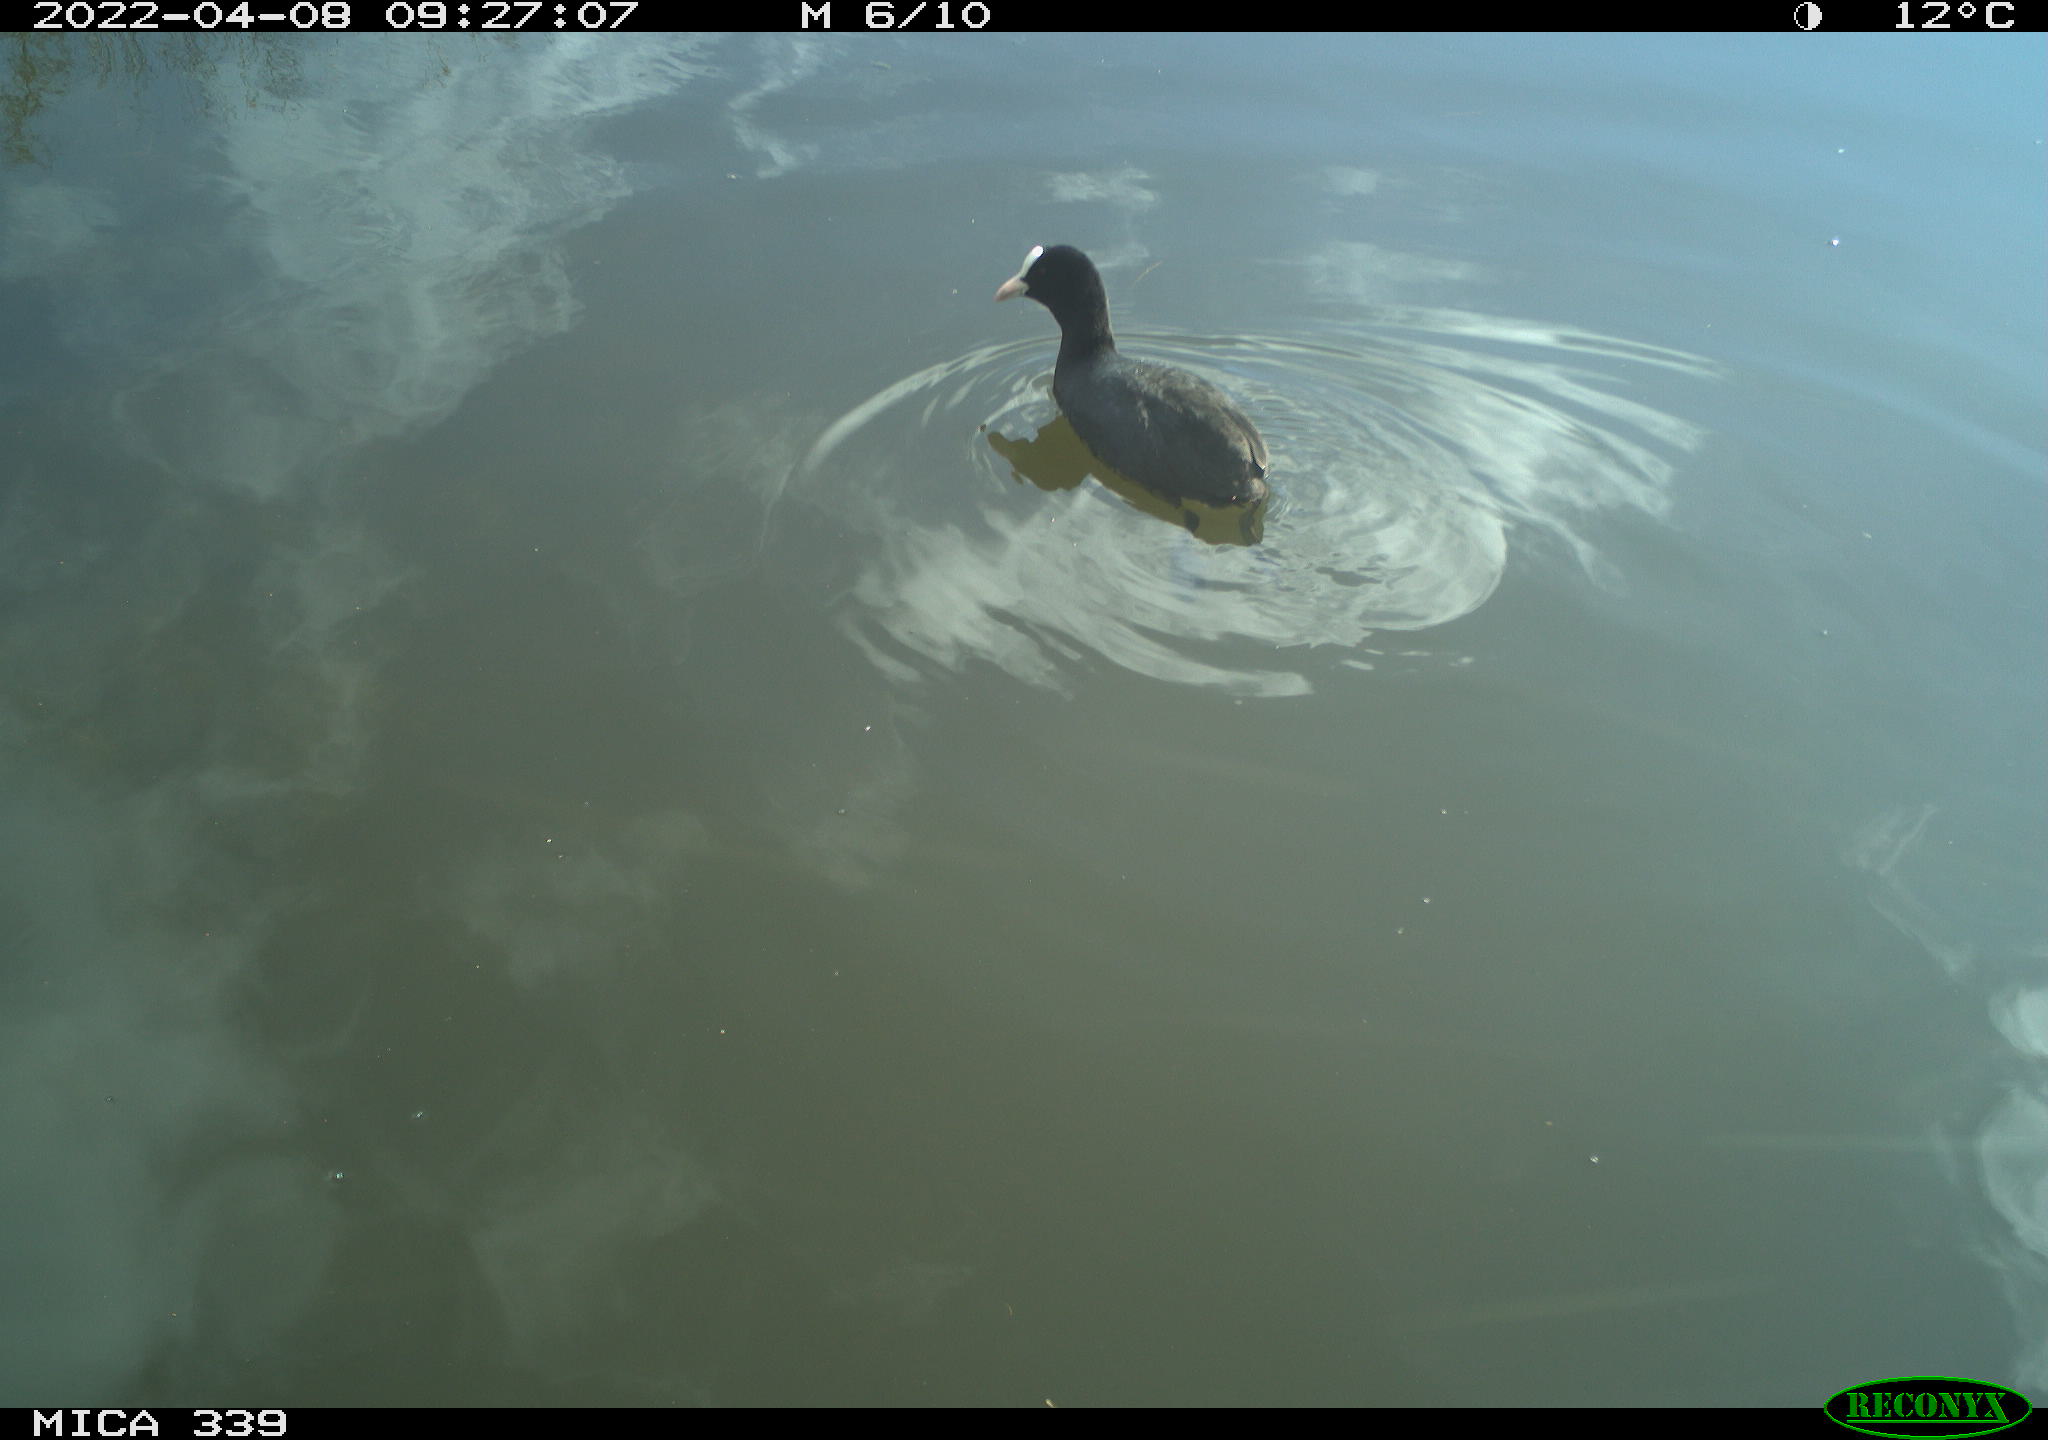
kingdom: Animalia
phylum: Chordata
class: Aves
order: Gruiformes
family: Rallidae
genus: Fulica
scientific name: Fulica atra
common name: Eurasian coot
